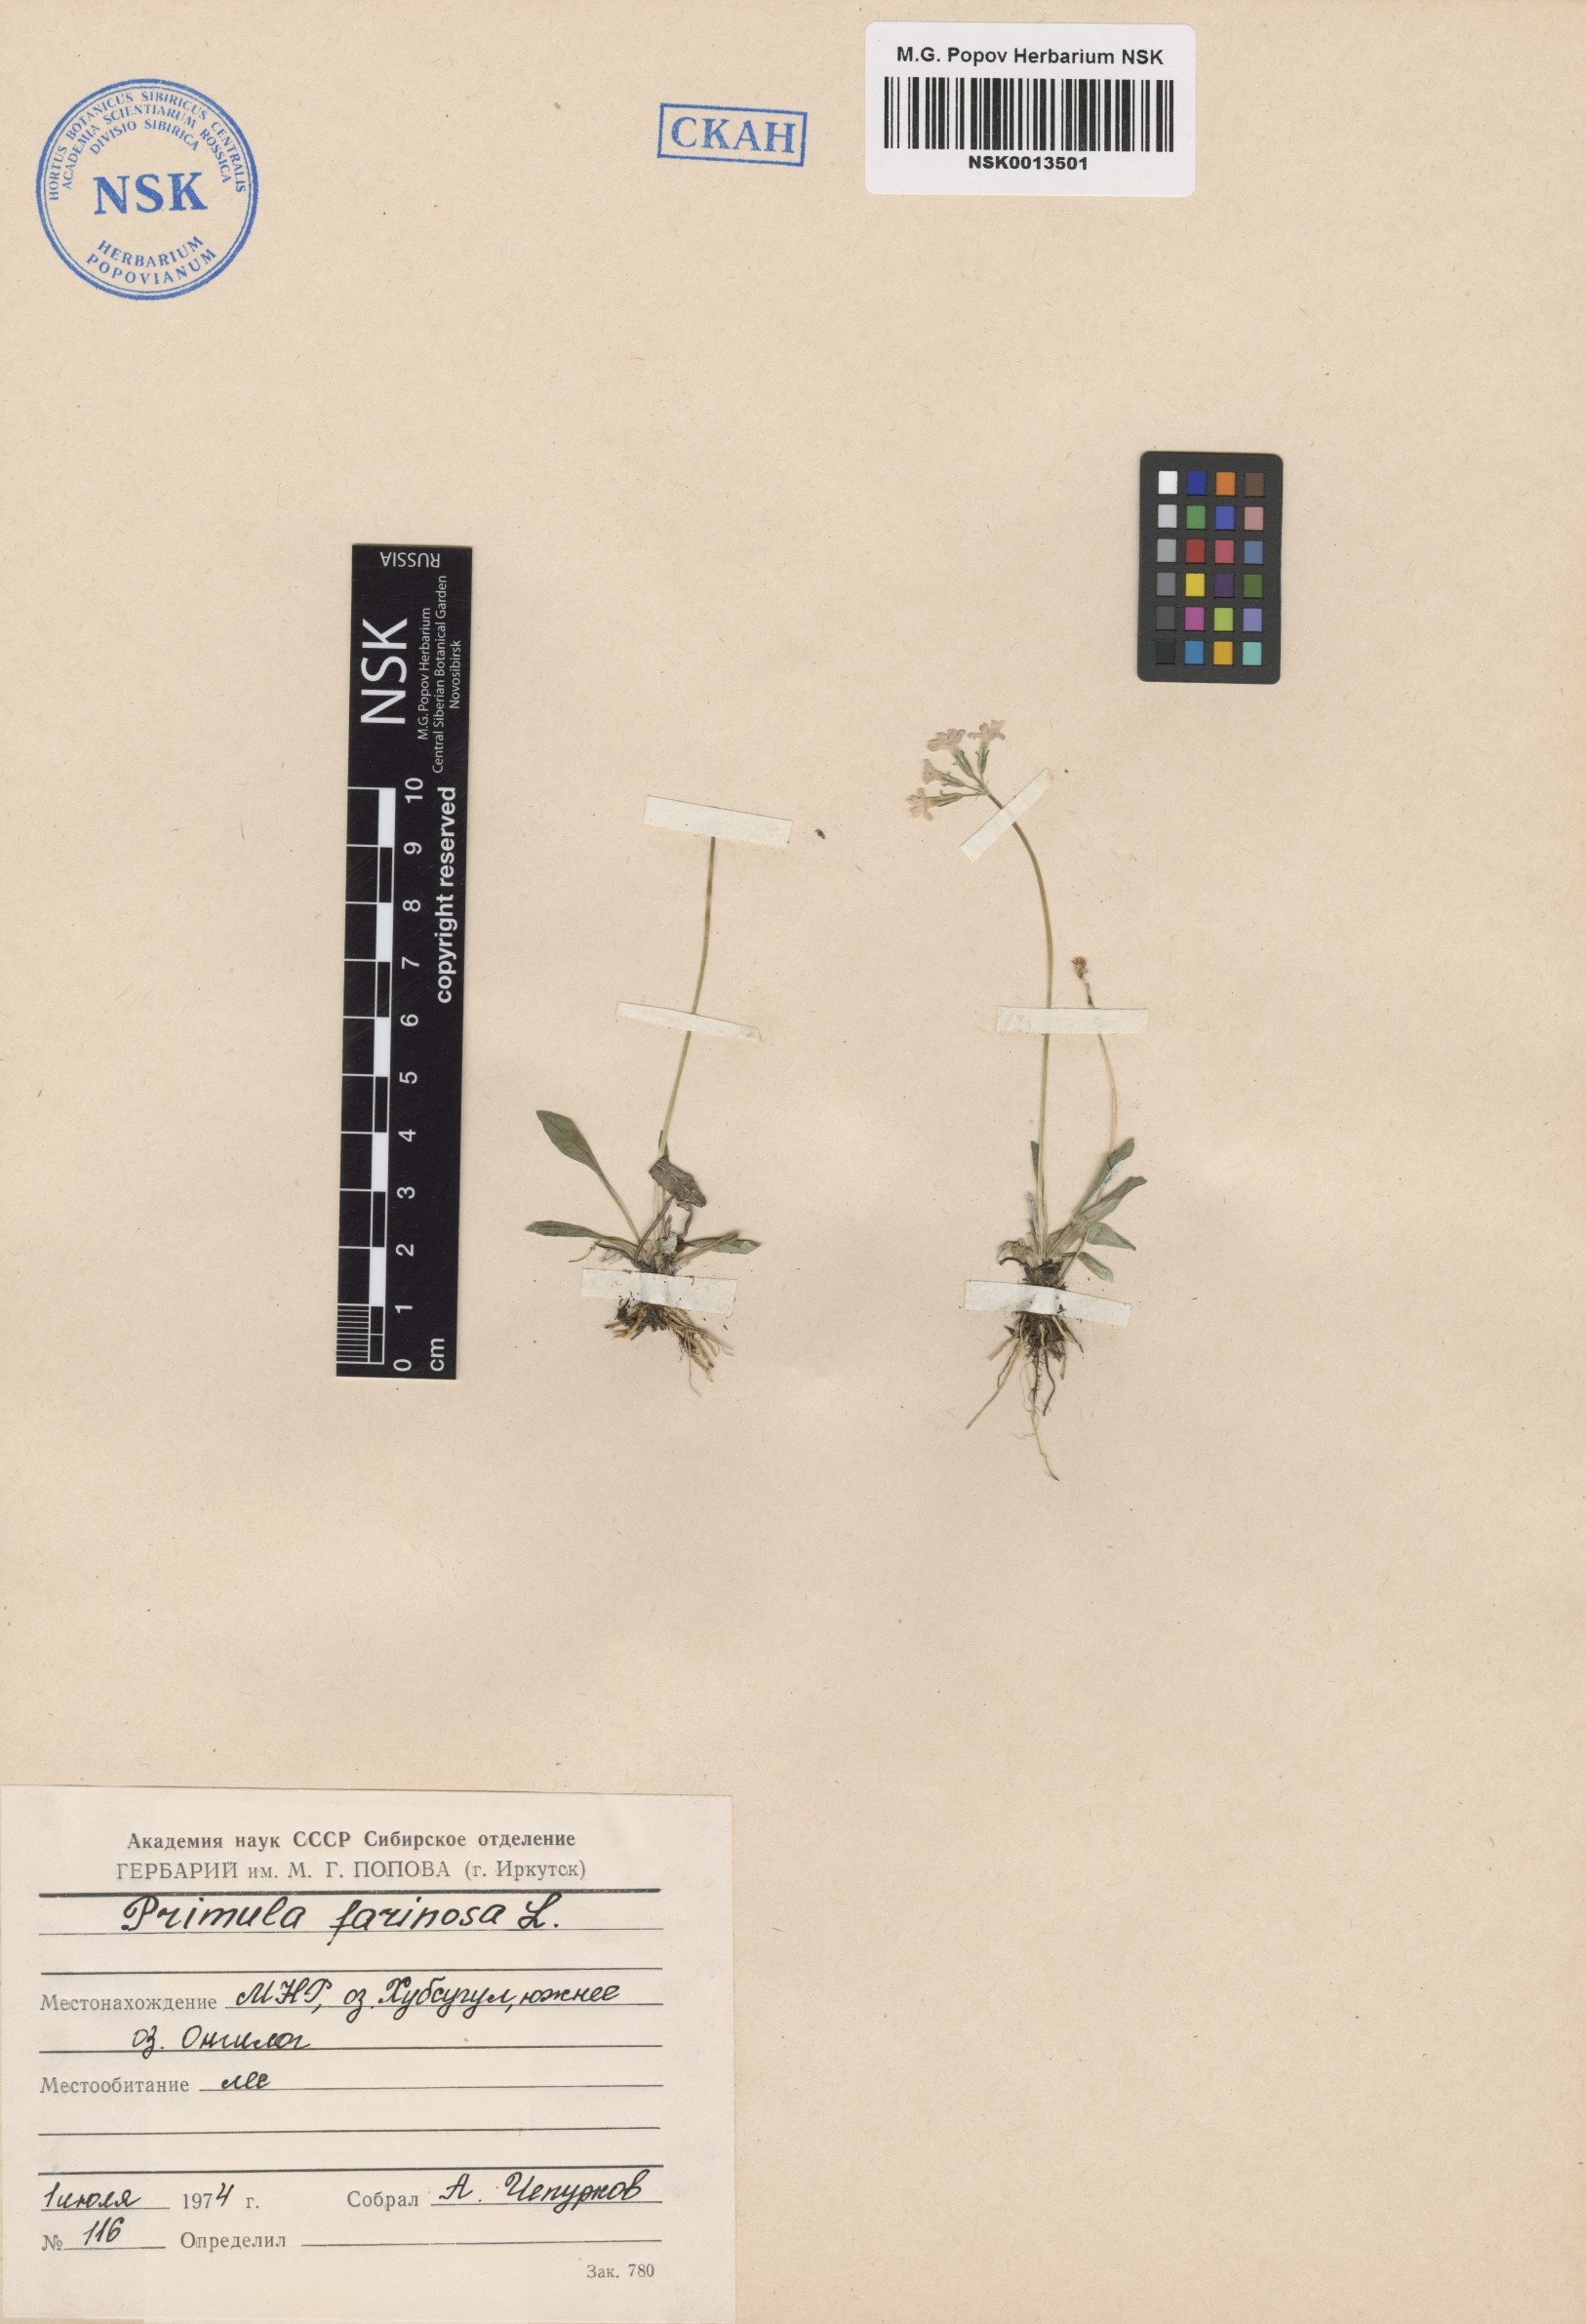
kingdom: Plantae
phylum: Tracheophyta
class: Magnoliopsida
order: Ericales
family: Primulaceae
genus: Primula
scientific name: Primula farinosa
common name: Bird's-eye primrose
